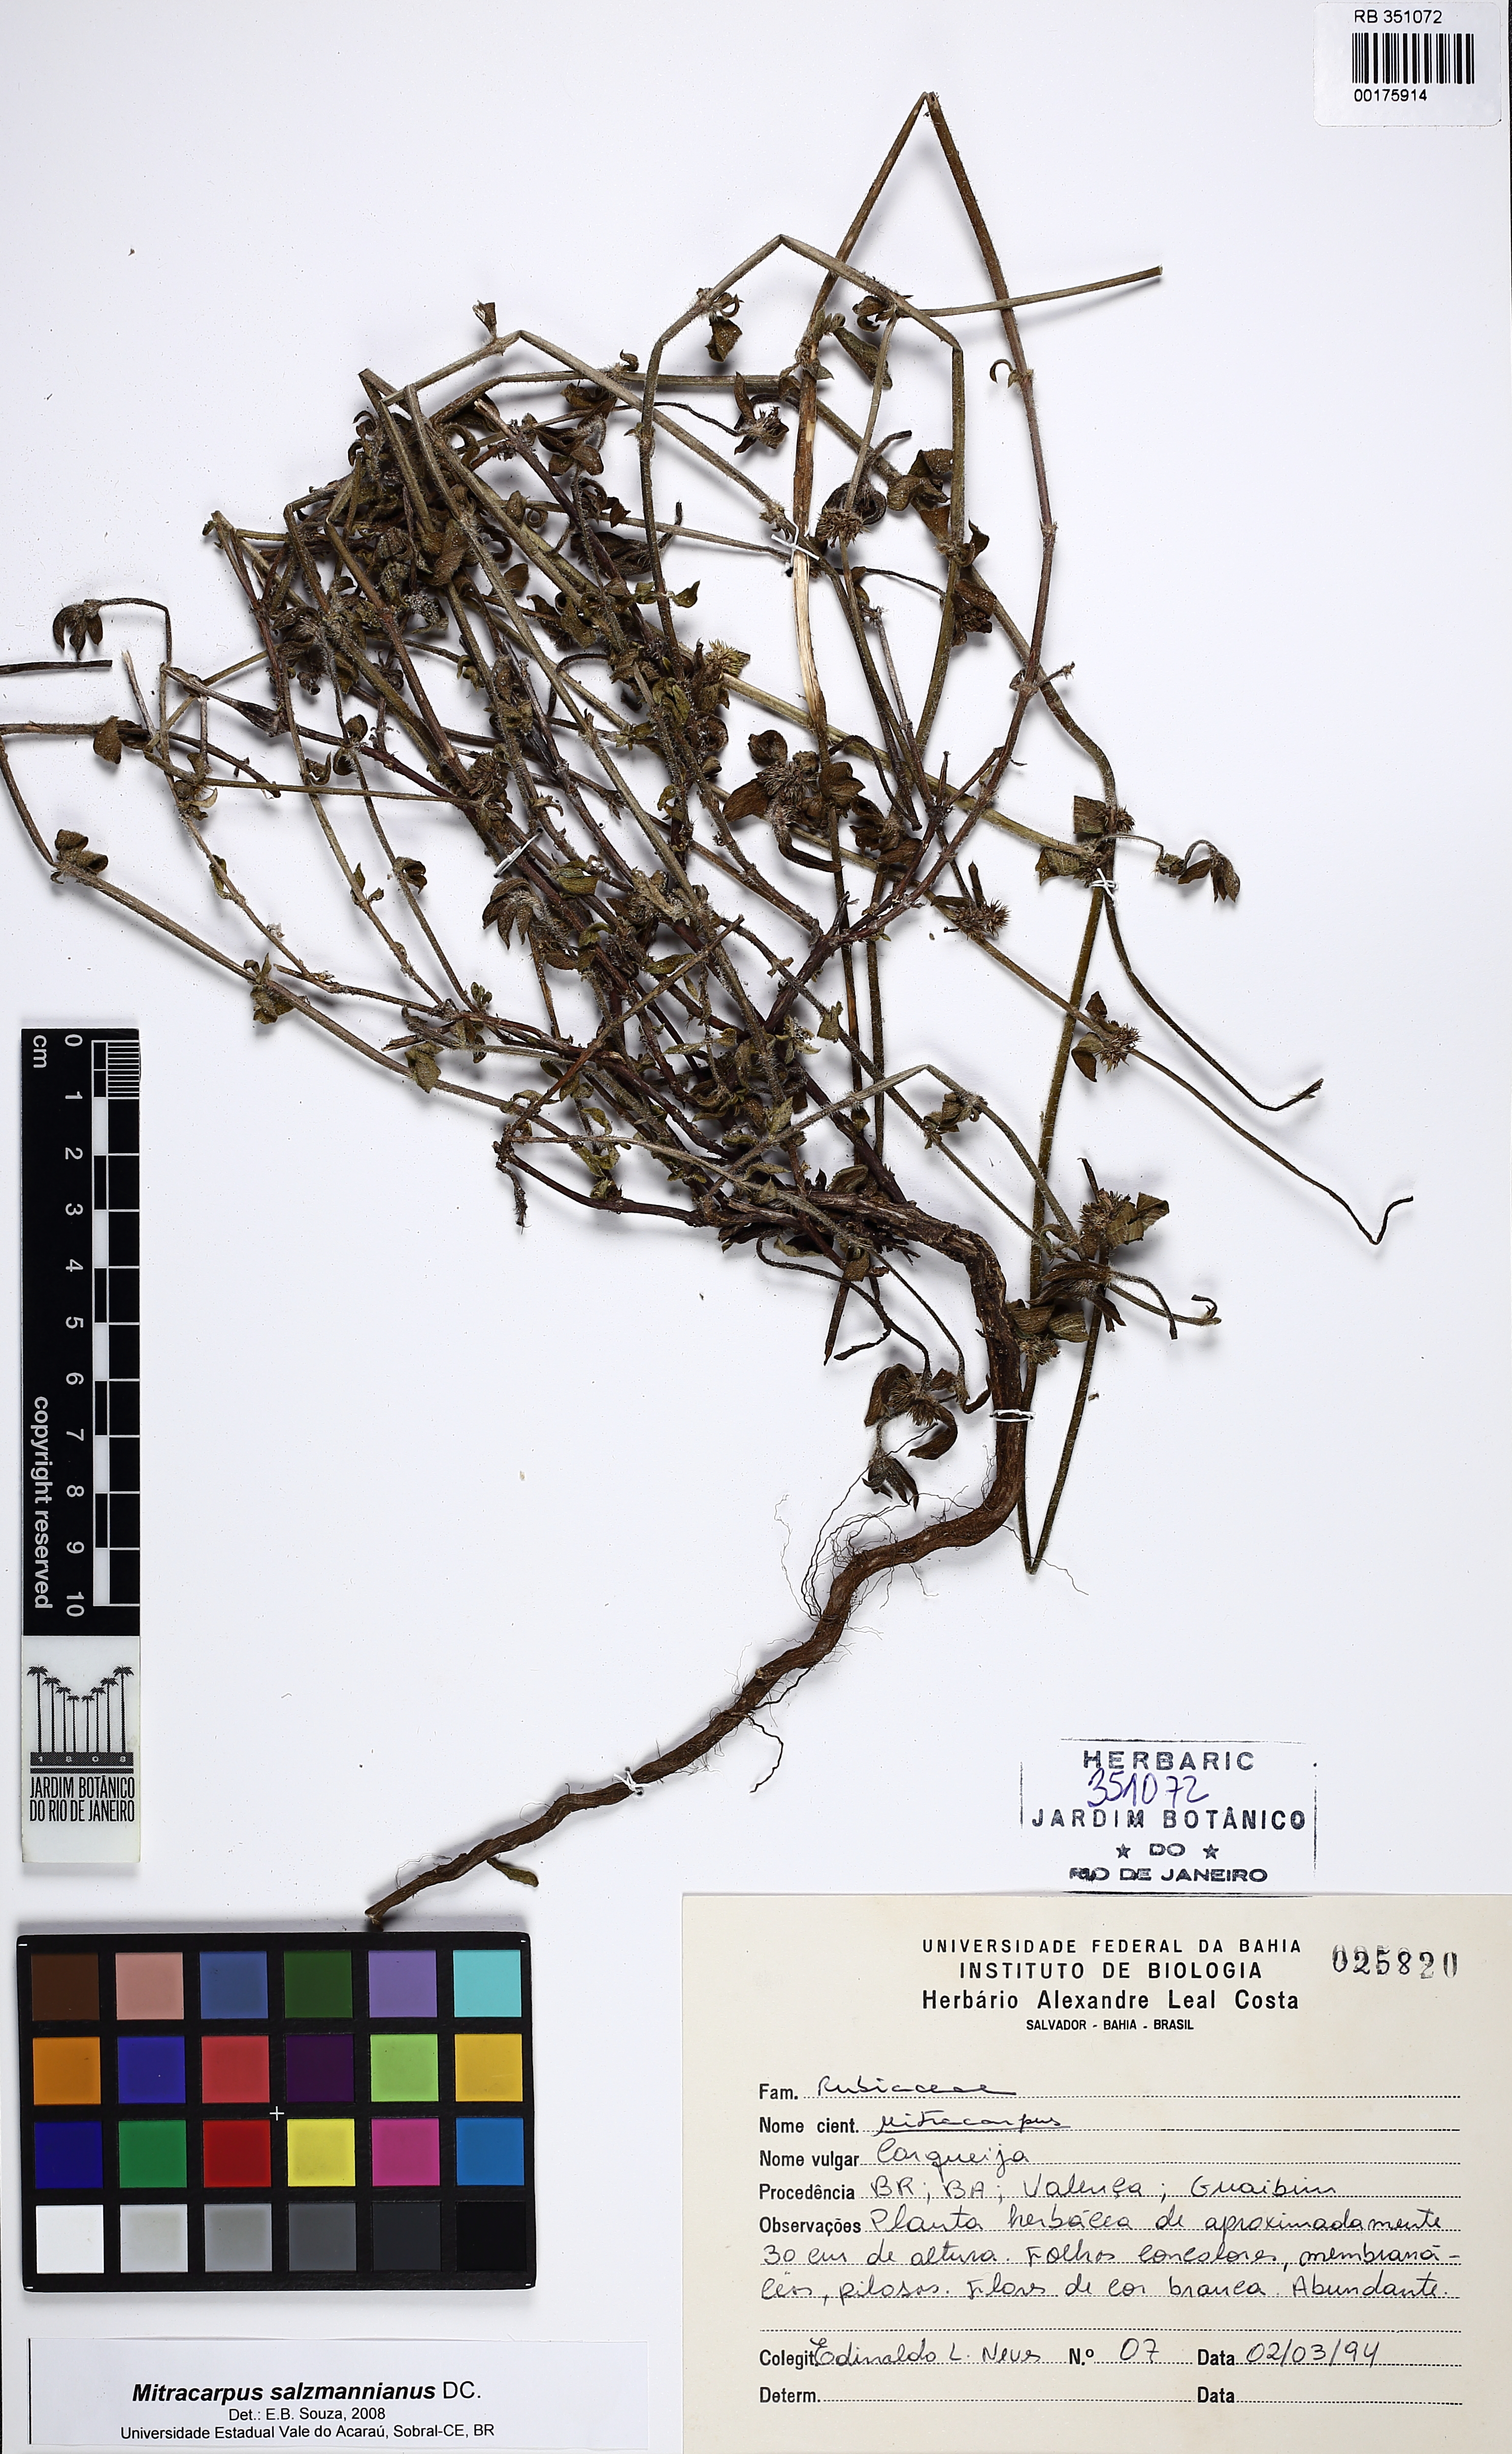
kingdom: Plantae
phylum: Tracheophyta
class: Magnoliopsida
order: Gentianales
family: Rubiaceae
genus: Mitracarpus
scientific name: Mitracarpus salzmannianus
